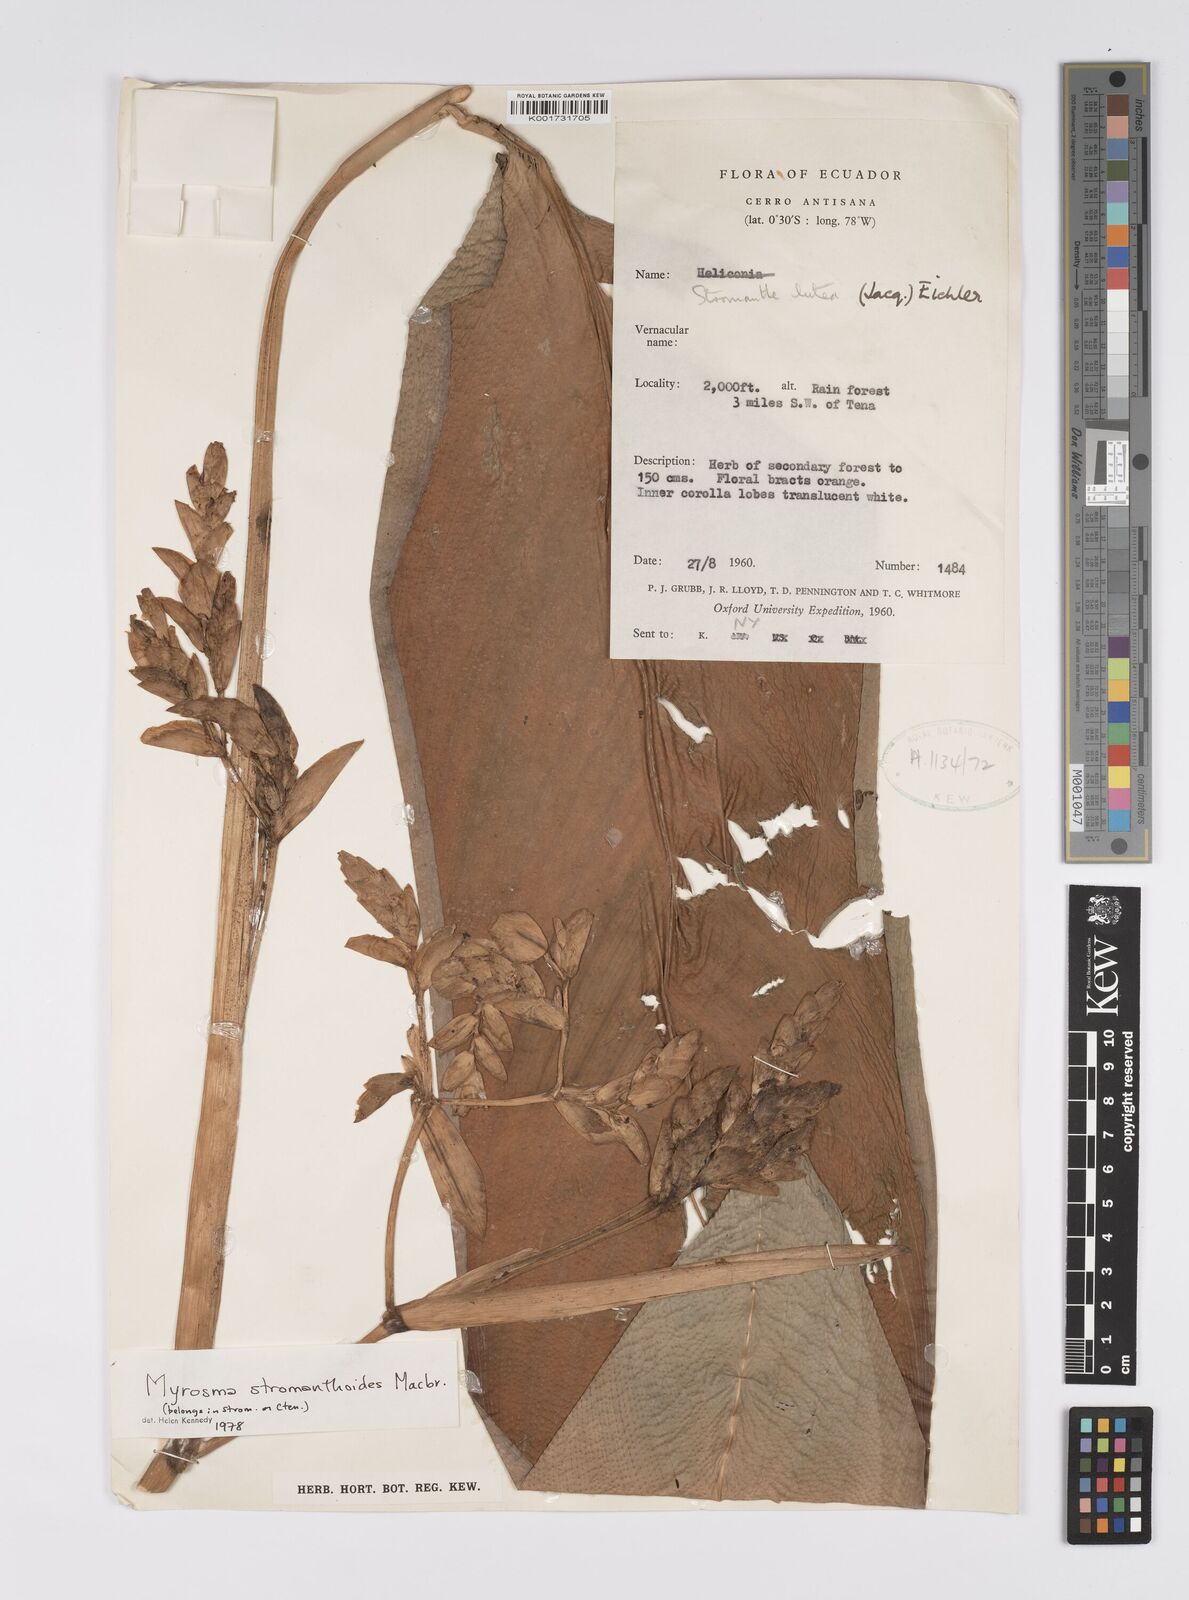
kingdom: Plantae
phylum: Tracheophyta
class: Liliopsida
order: Zingiberales
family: Marantaceae
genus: Stromanthe
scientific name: Stromanthe stromanthoides
